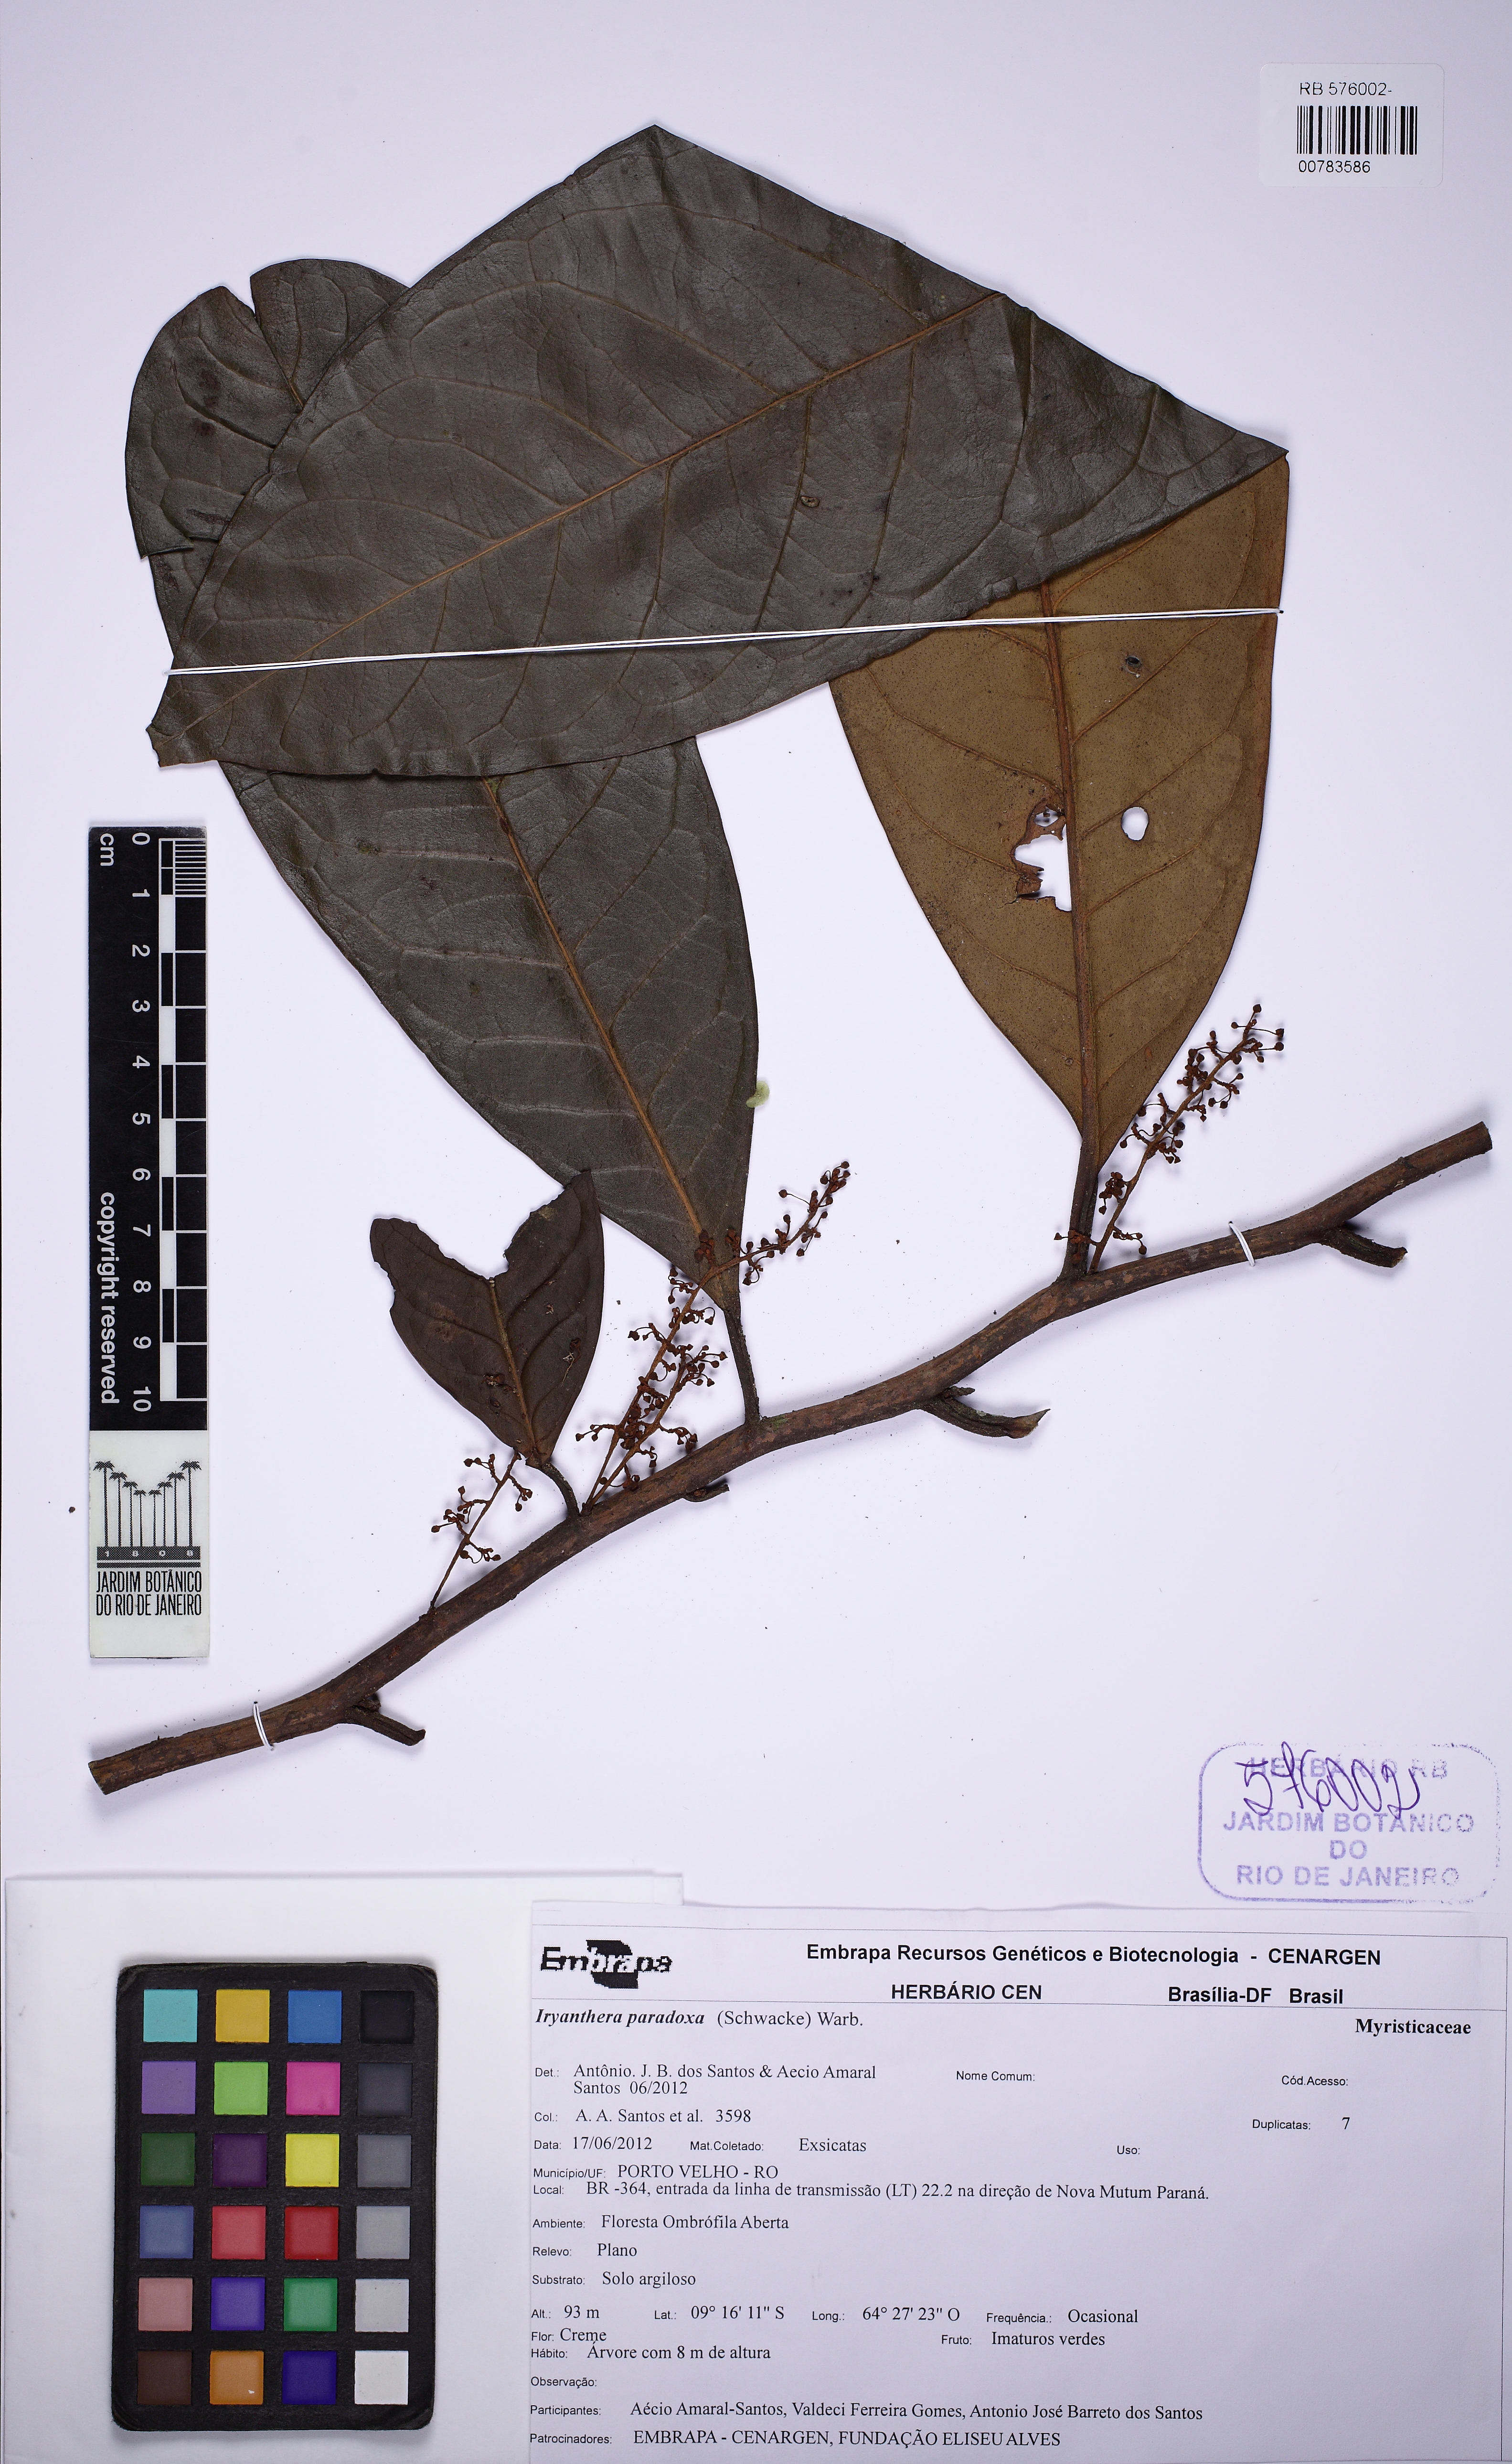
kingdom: Plantae
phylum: Tracheophyta
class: Magnoliopsida
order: Magnoliales
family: Myristicaceae
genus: Iryanthera
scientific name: Iryanthera paradoxa
